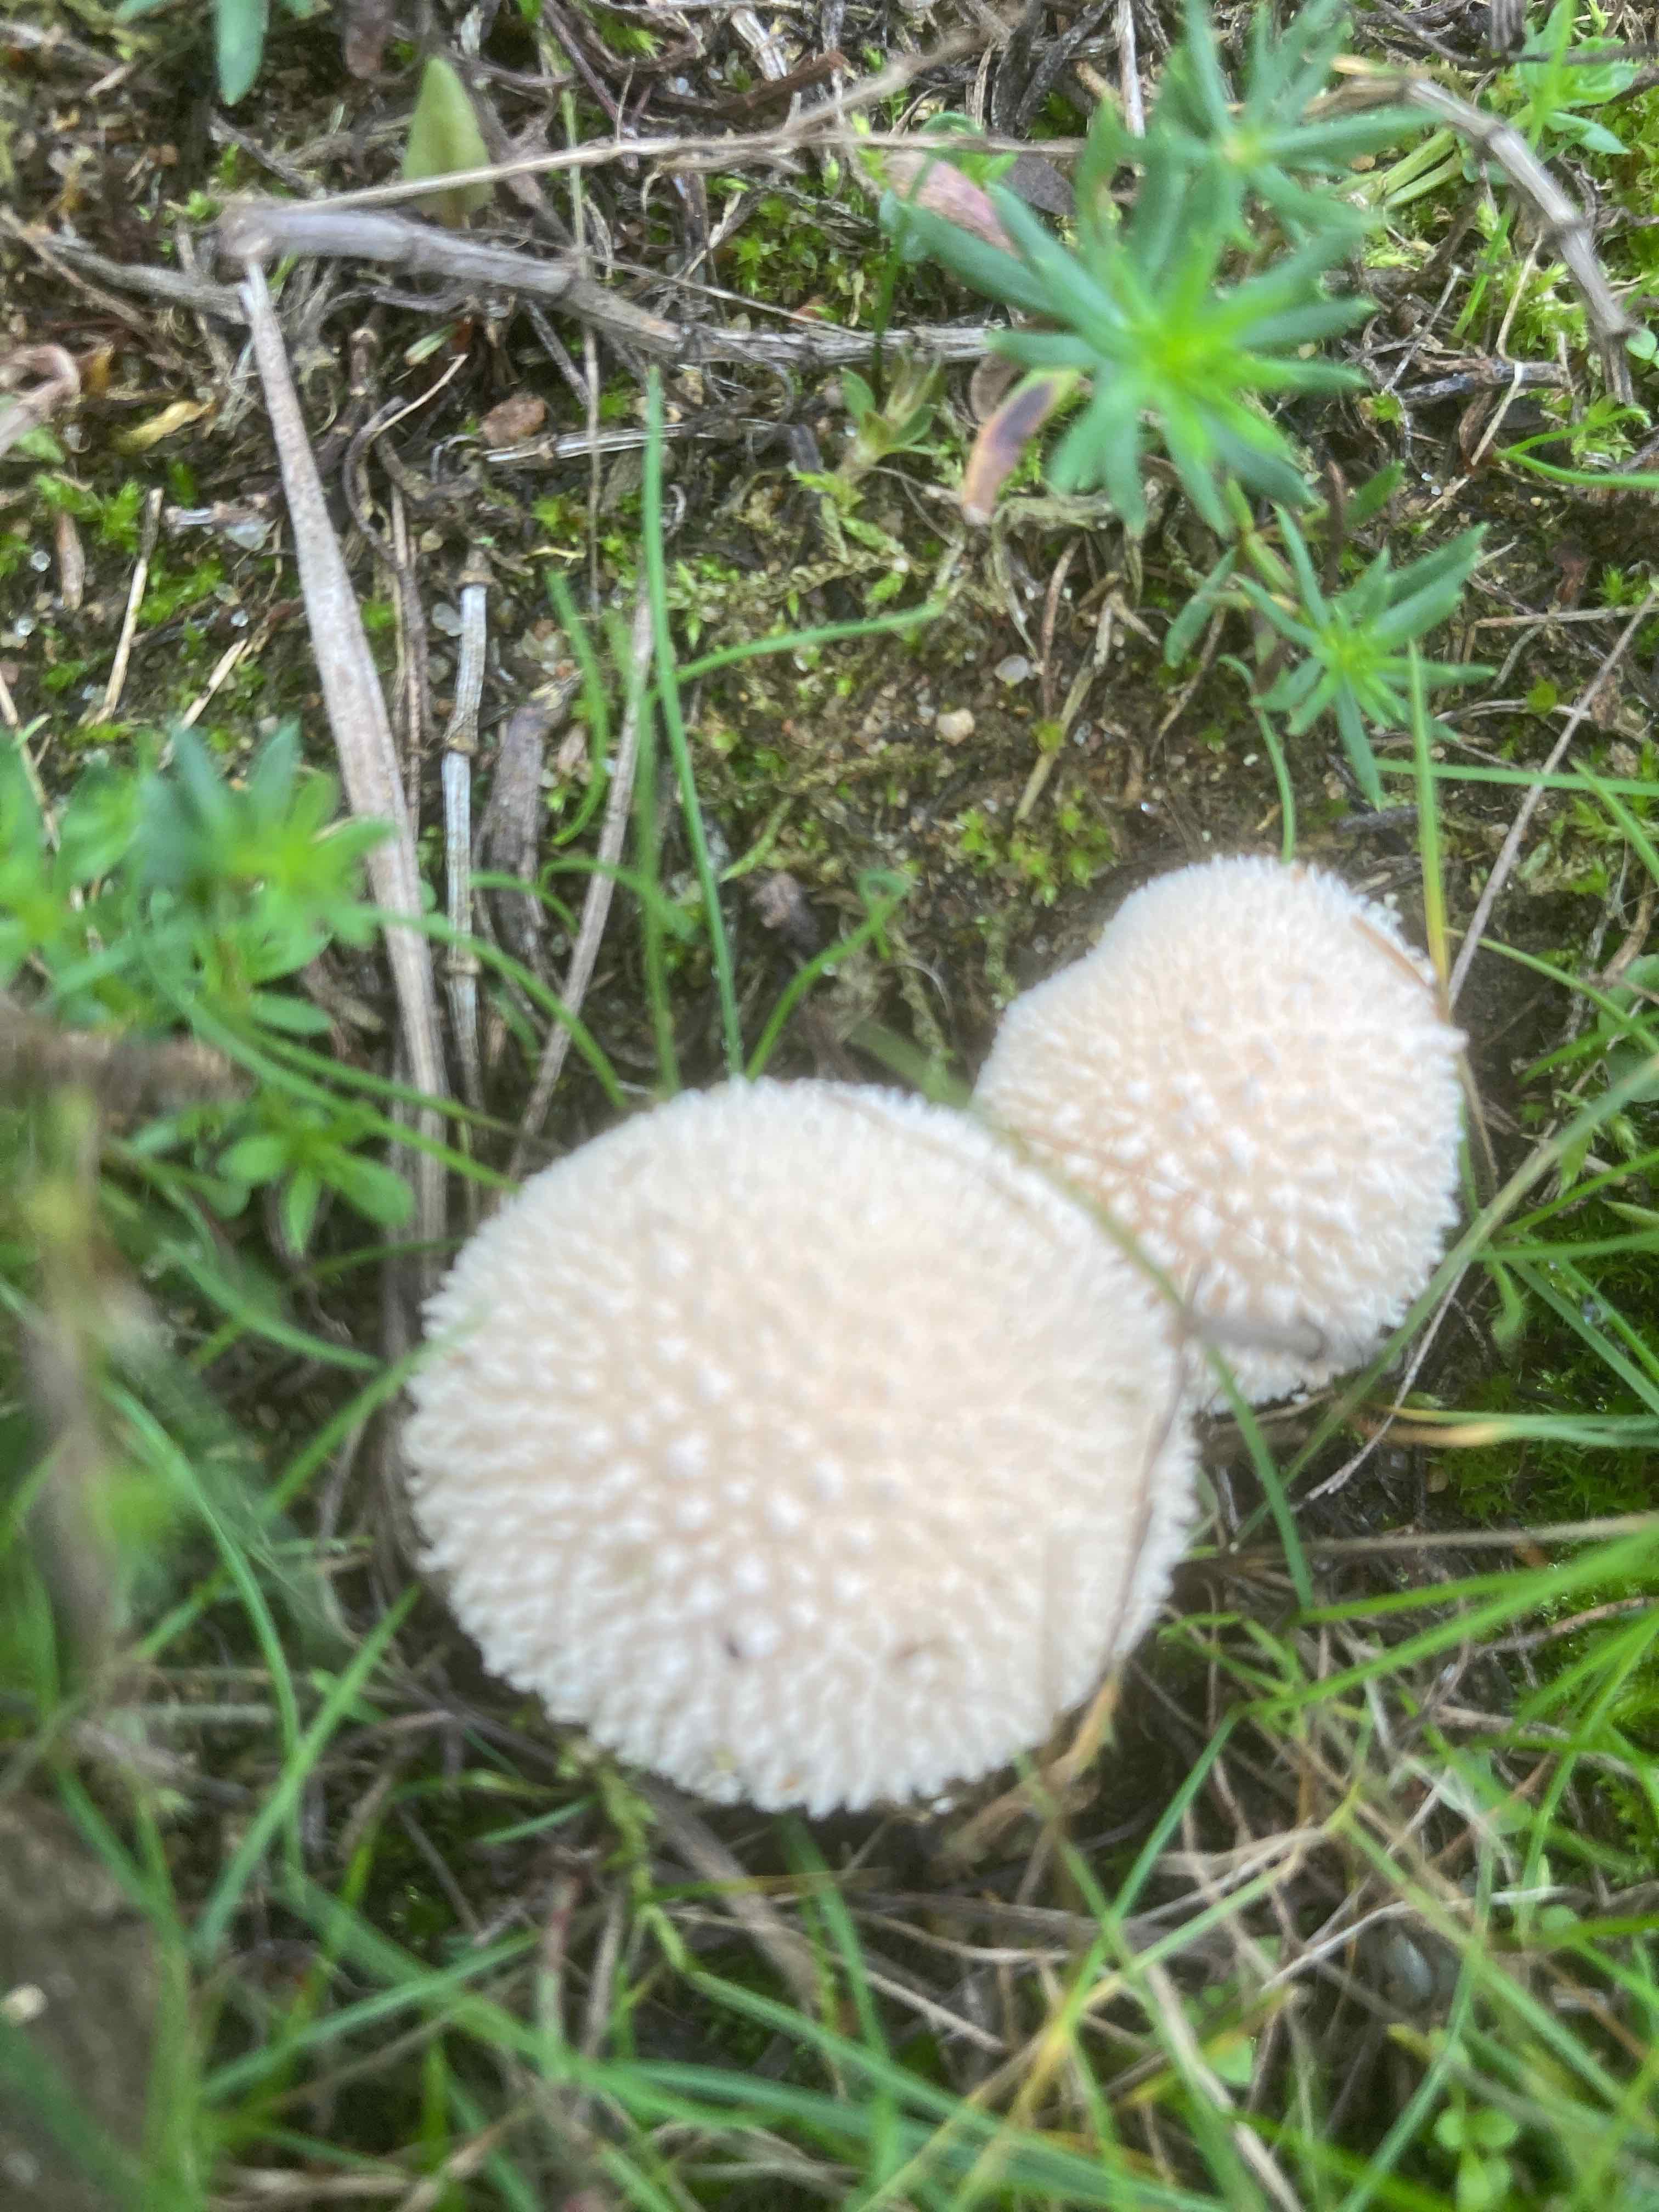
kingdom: Fungi
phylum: Basidiomycota
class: Agaricomycetes
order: Agaricales
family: Agaricaceae
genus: Lycoperdon
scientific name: Lycoperdon
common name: støvbold
